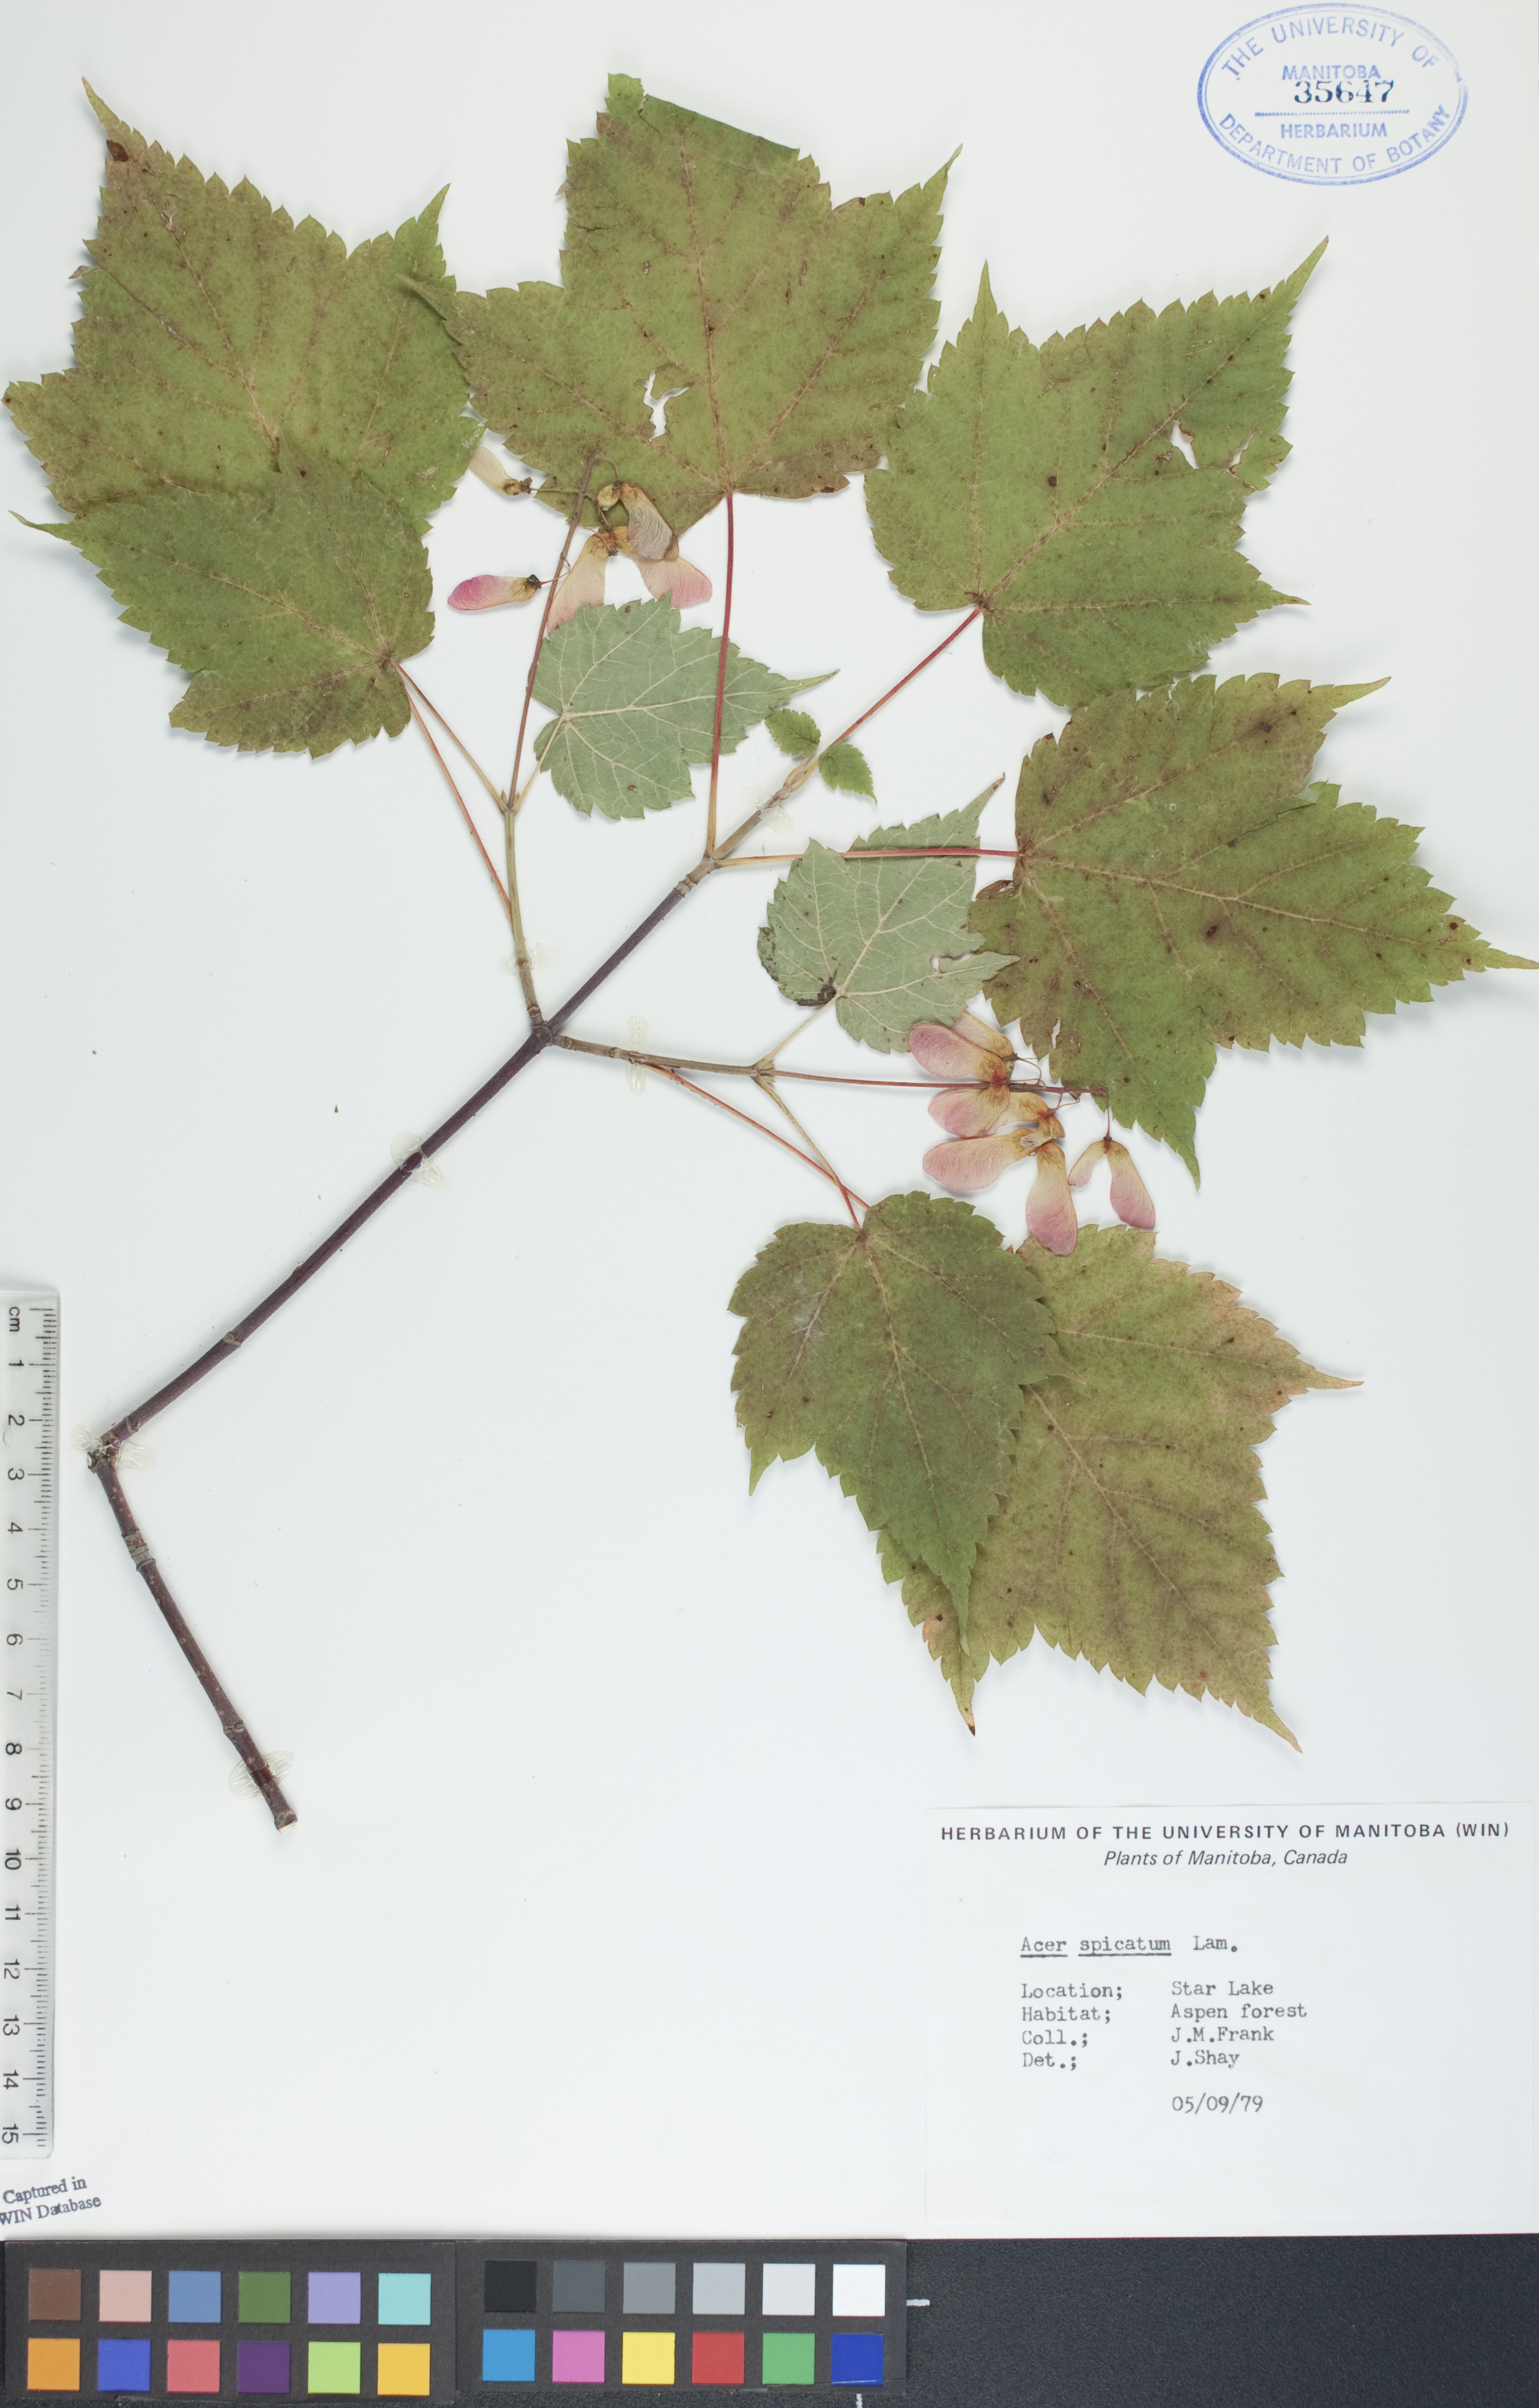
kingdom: Plantae
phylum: Tracheophyta
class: Magnoliopsida
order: Sapindales
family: Sapindaceae
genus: Acer
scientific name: Acer spicatum
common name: Mountain maple
